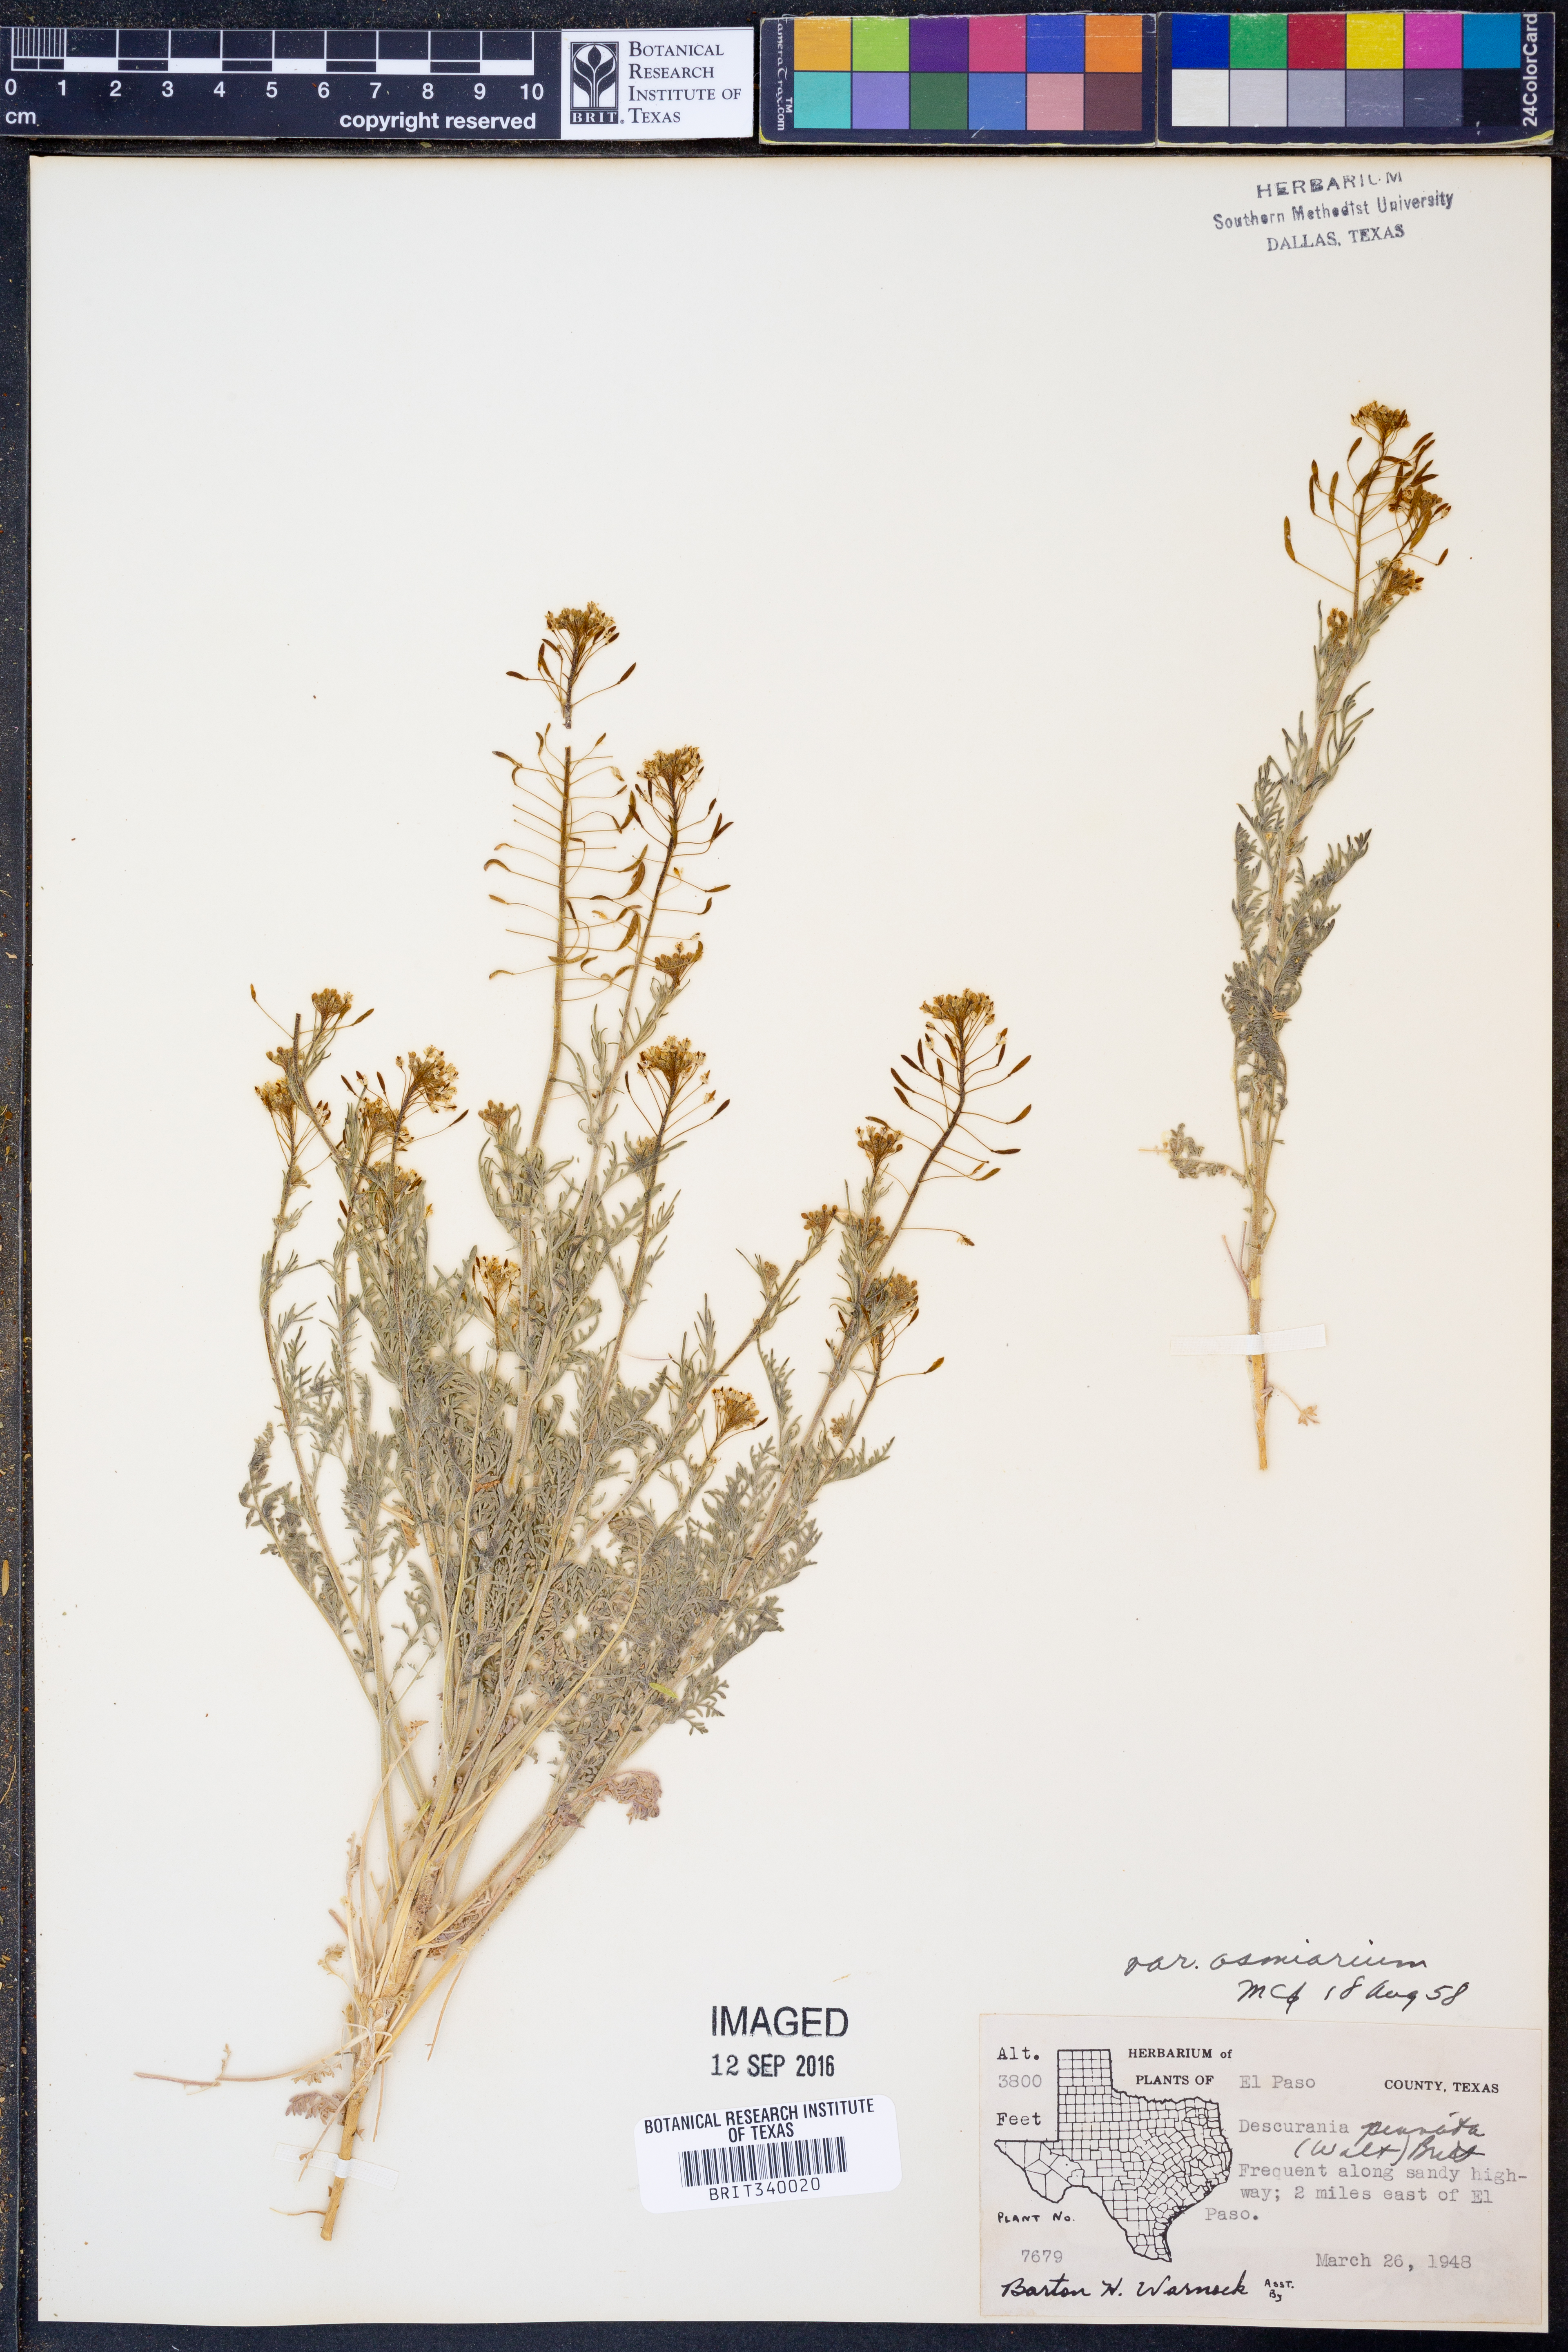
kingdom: Plantae
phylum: Tracheophyta
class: Magnoliopsida
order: Brassicales
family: Brassicaceae
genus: Descurainia
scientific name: Descurainia pinnata
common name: Western tansy mustard
